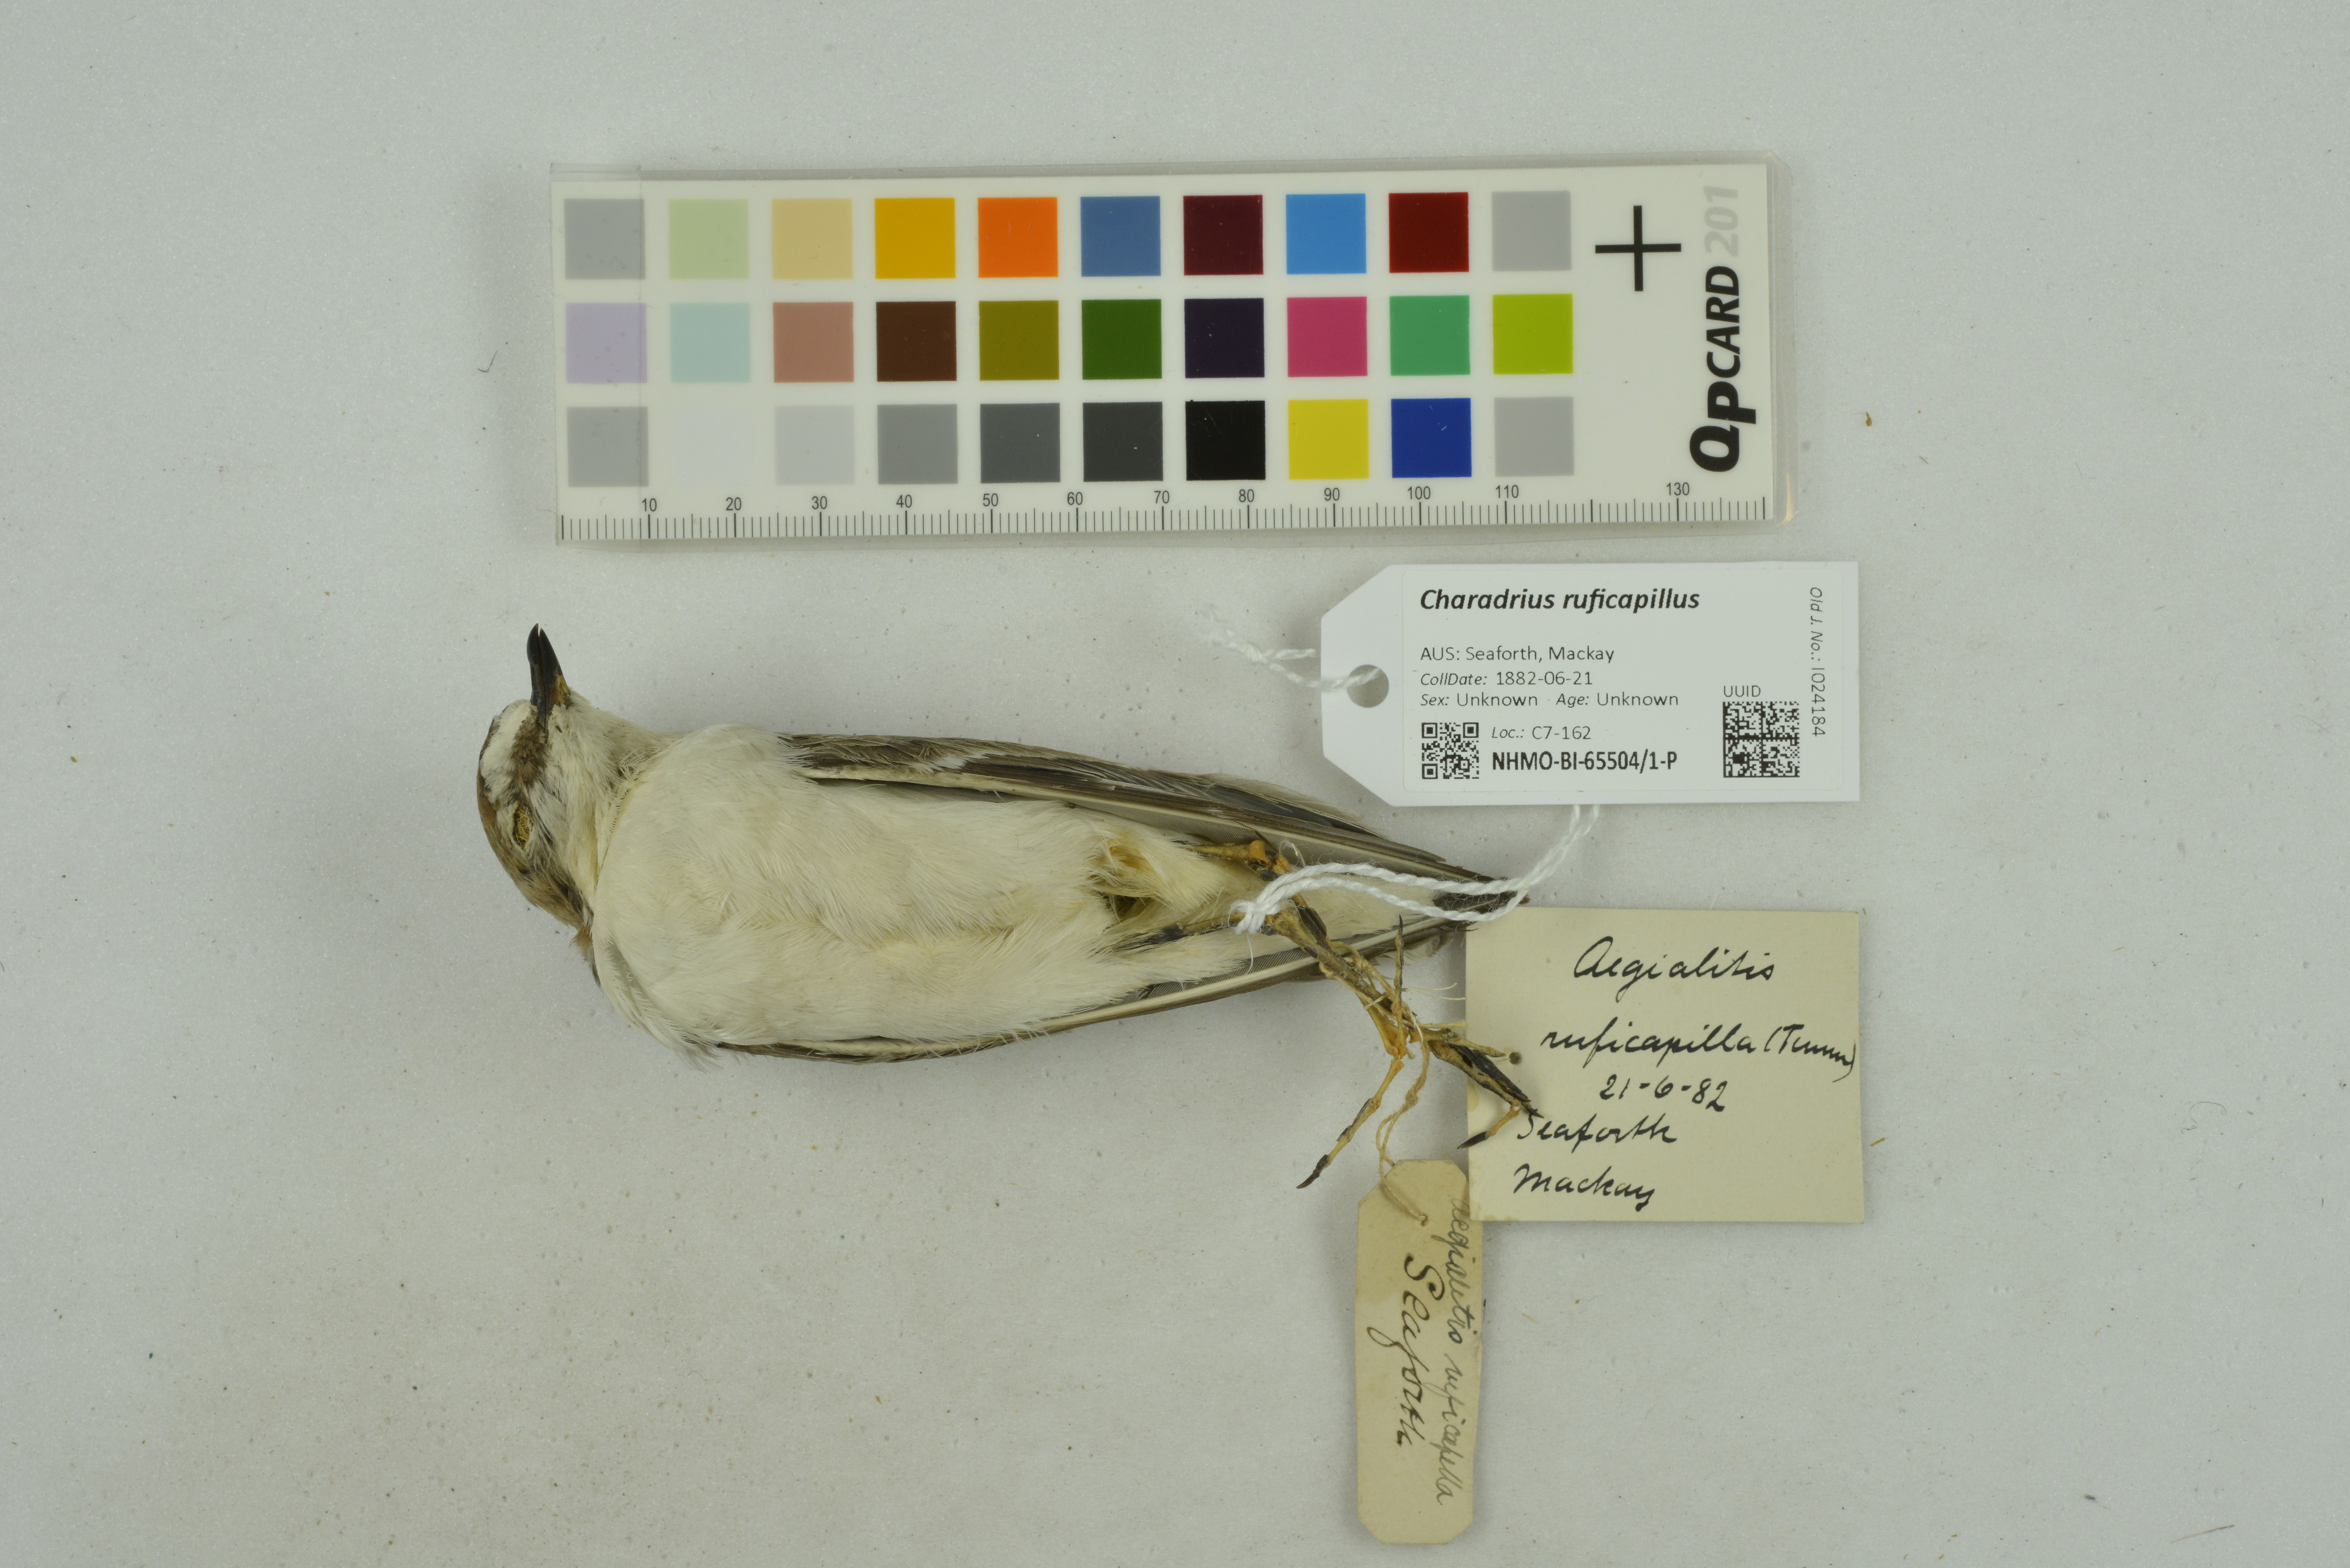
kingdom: Animalia
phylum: Chordata
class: Aves
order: Charadriiformes
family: Charadriidae
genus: Charadrius
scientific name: Charadrius ruficapillus
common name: Red-capped plover
